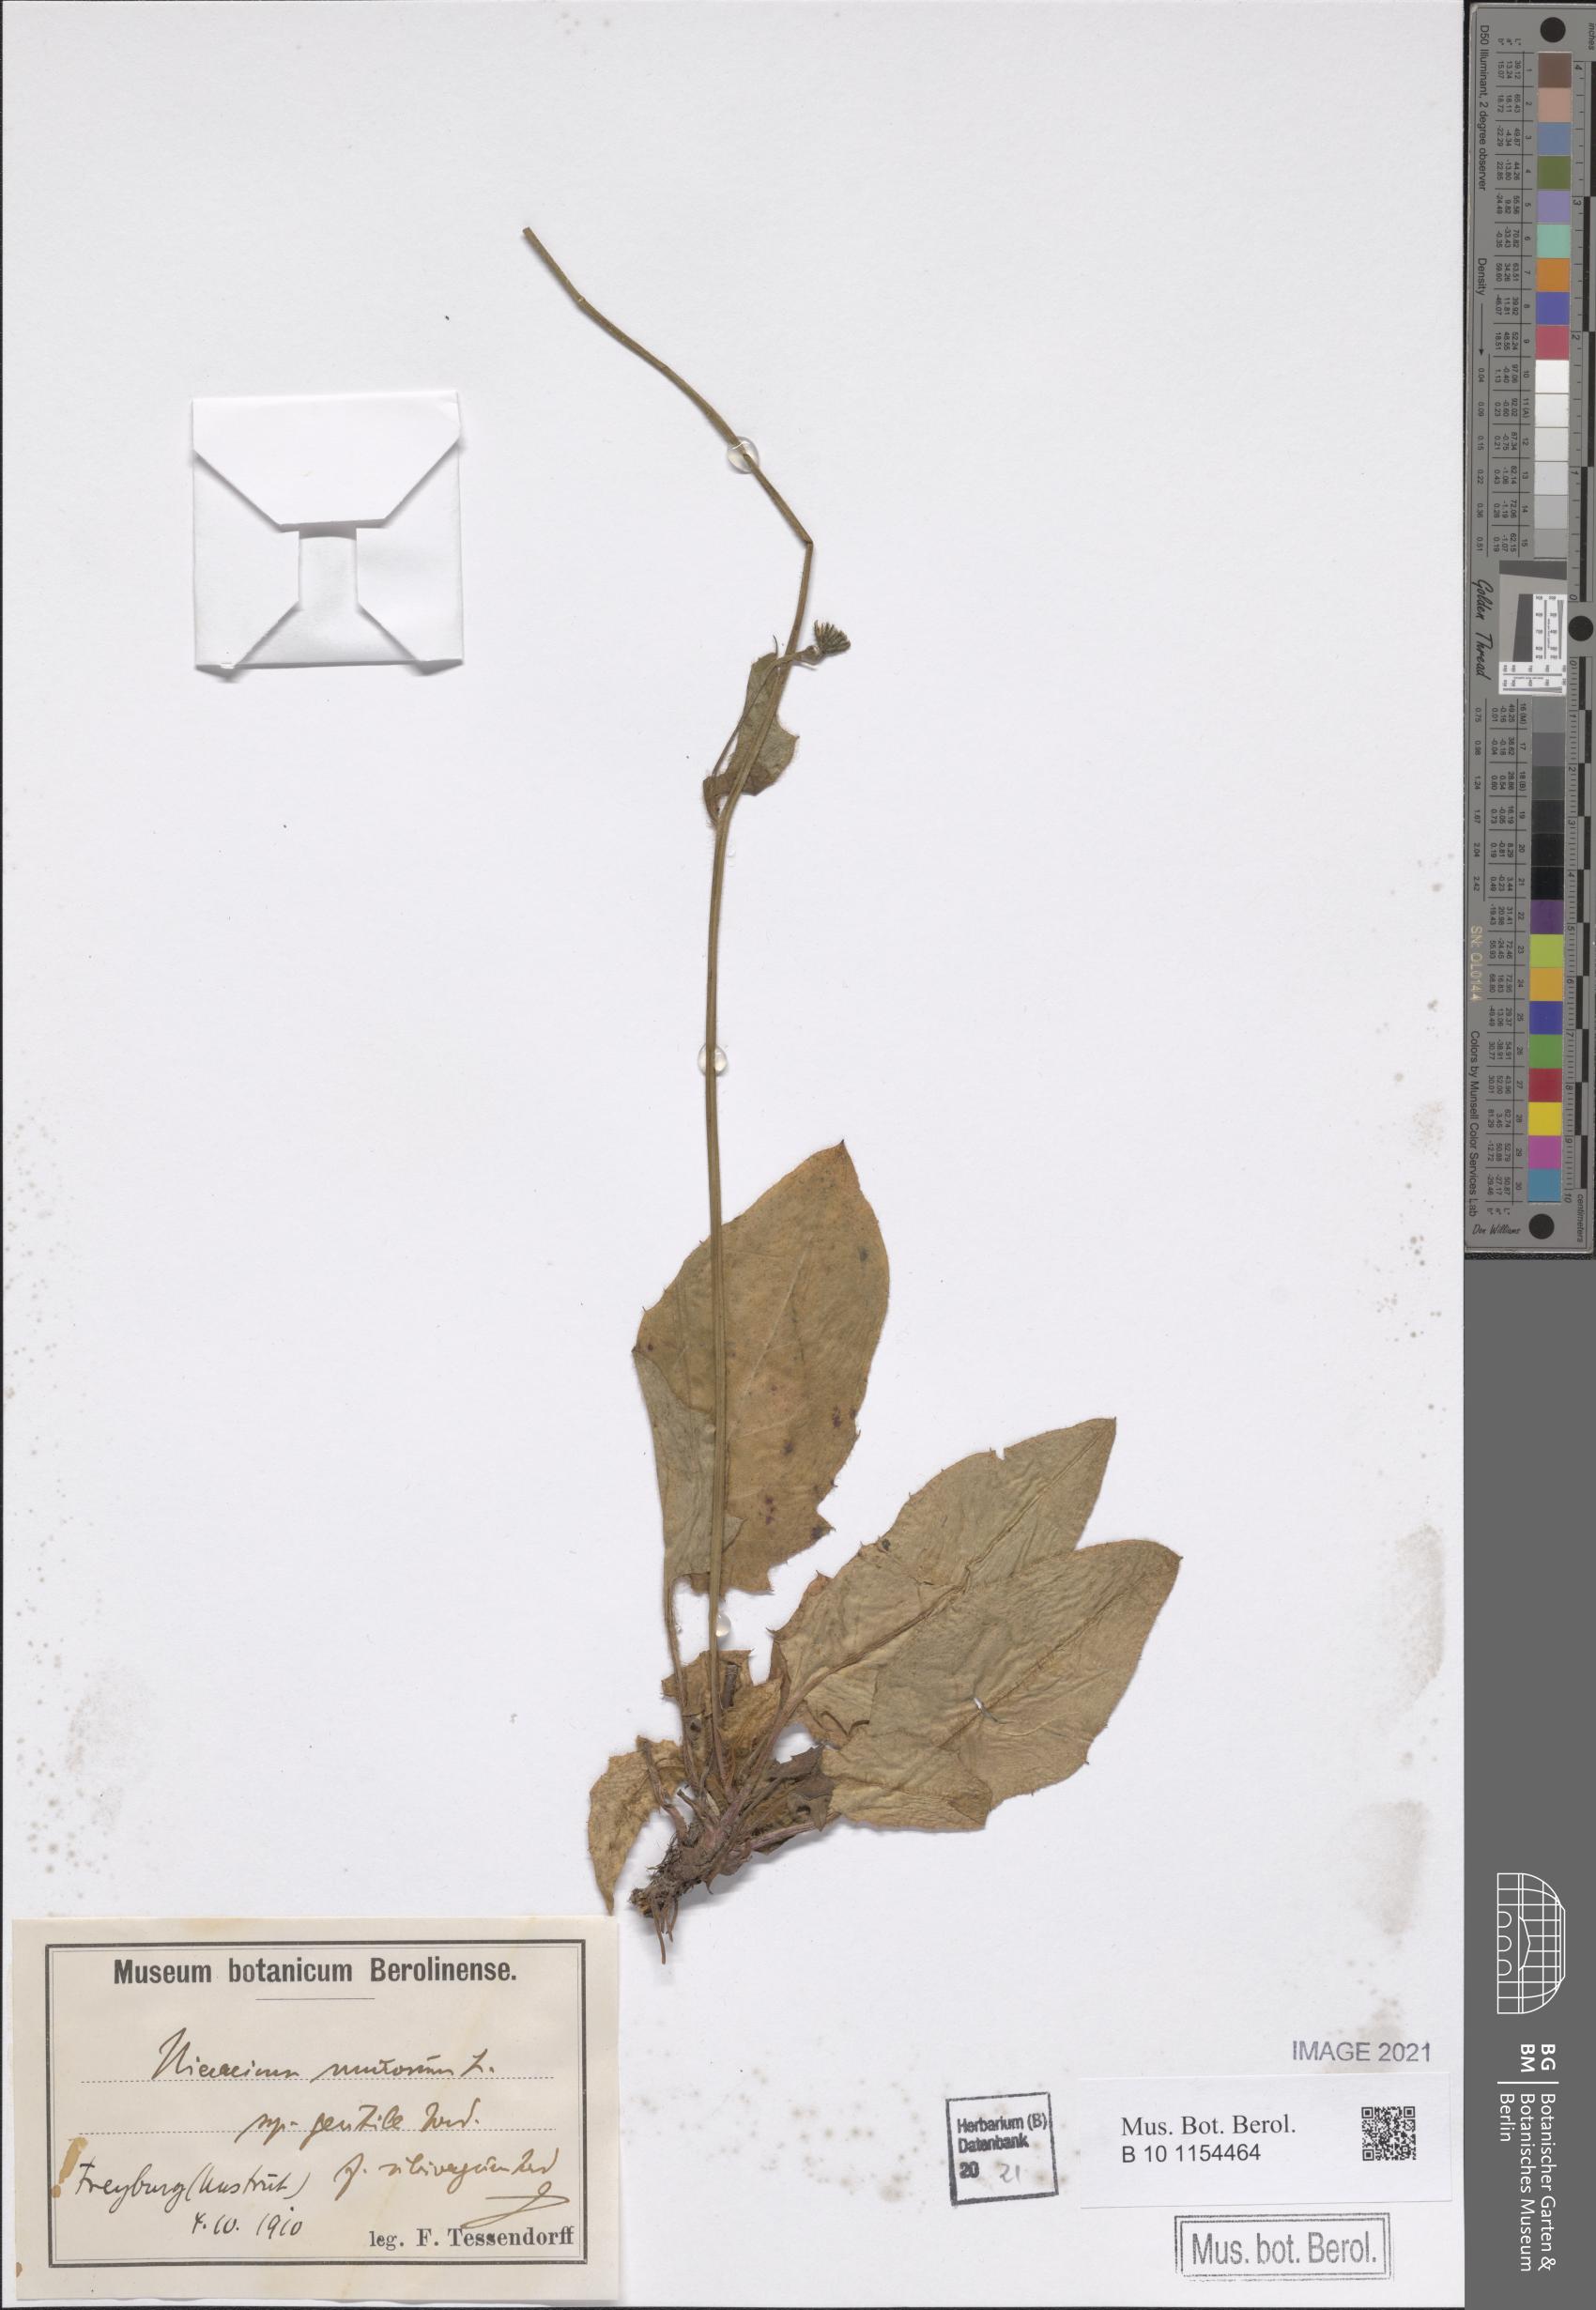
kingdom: Plantae
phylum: Tracheophyta
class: Magnoliopsida
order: Asterales
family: Asteraceae
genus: Hieracium
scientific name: Hieracium murorum
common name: Wall hawkweed
